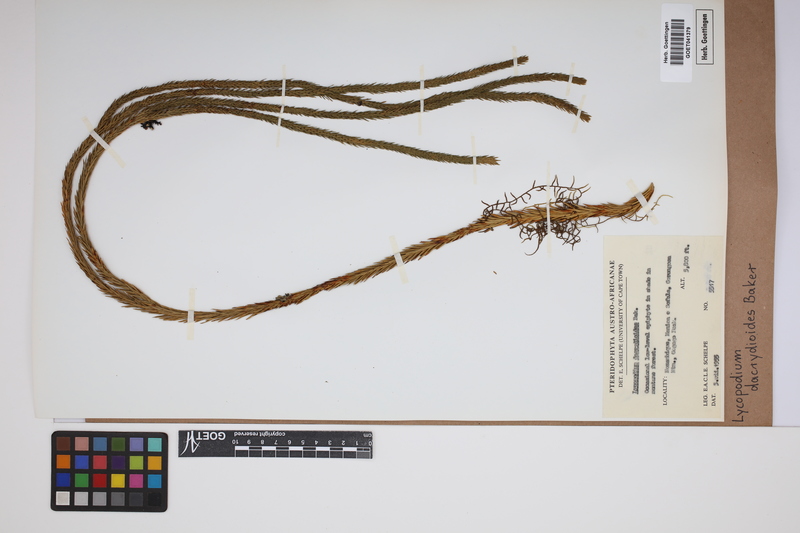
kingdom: Plantae
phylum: Tracheophyta
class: Lycopodiopsida
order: Lycopodiales
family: Lycopodiaceae
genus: Phlegmariurus
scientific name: Phlegmariurus dacrydioides
